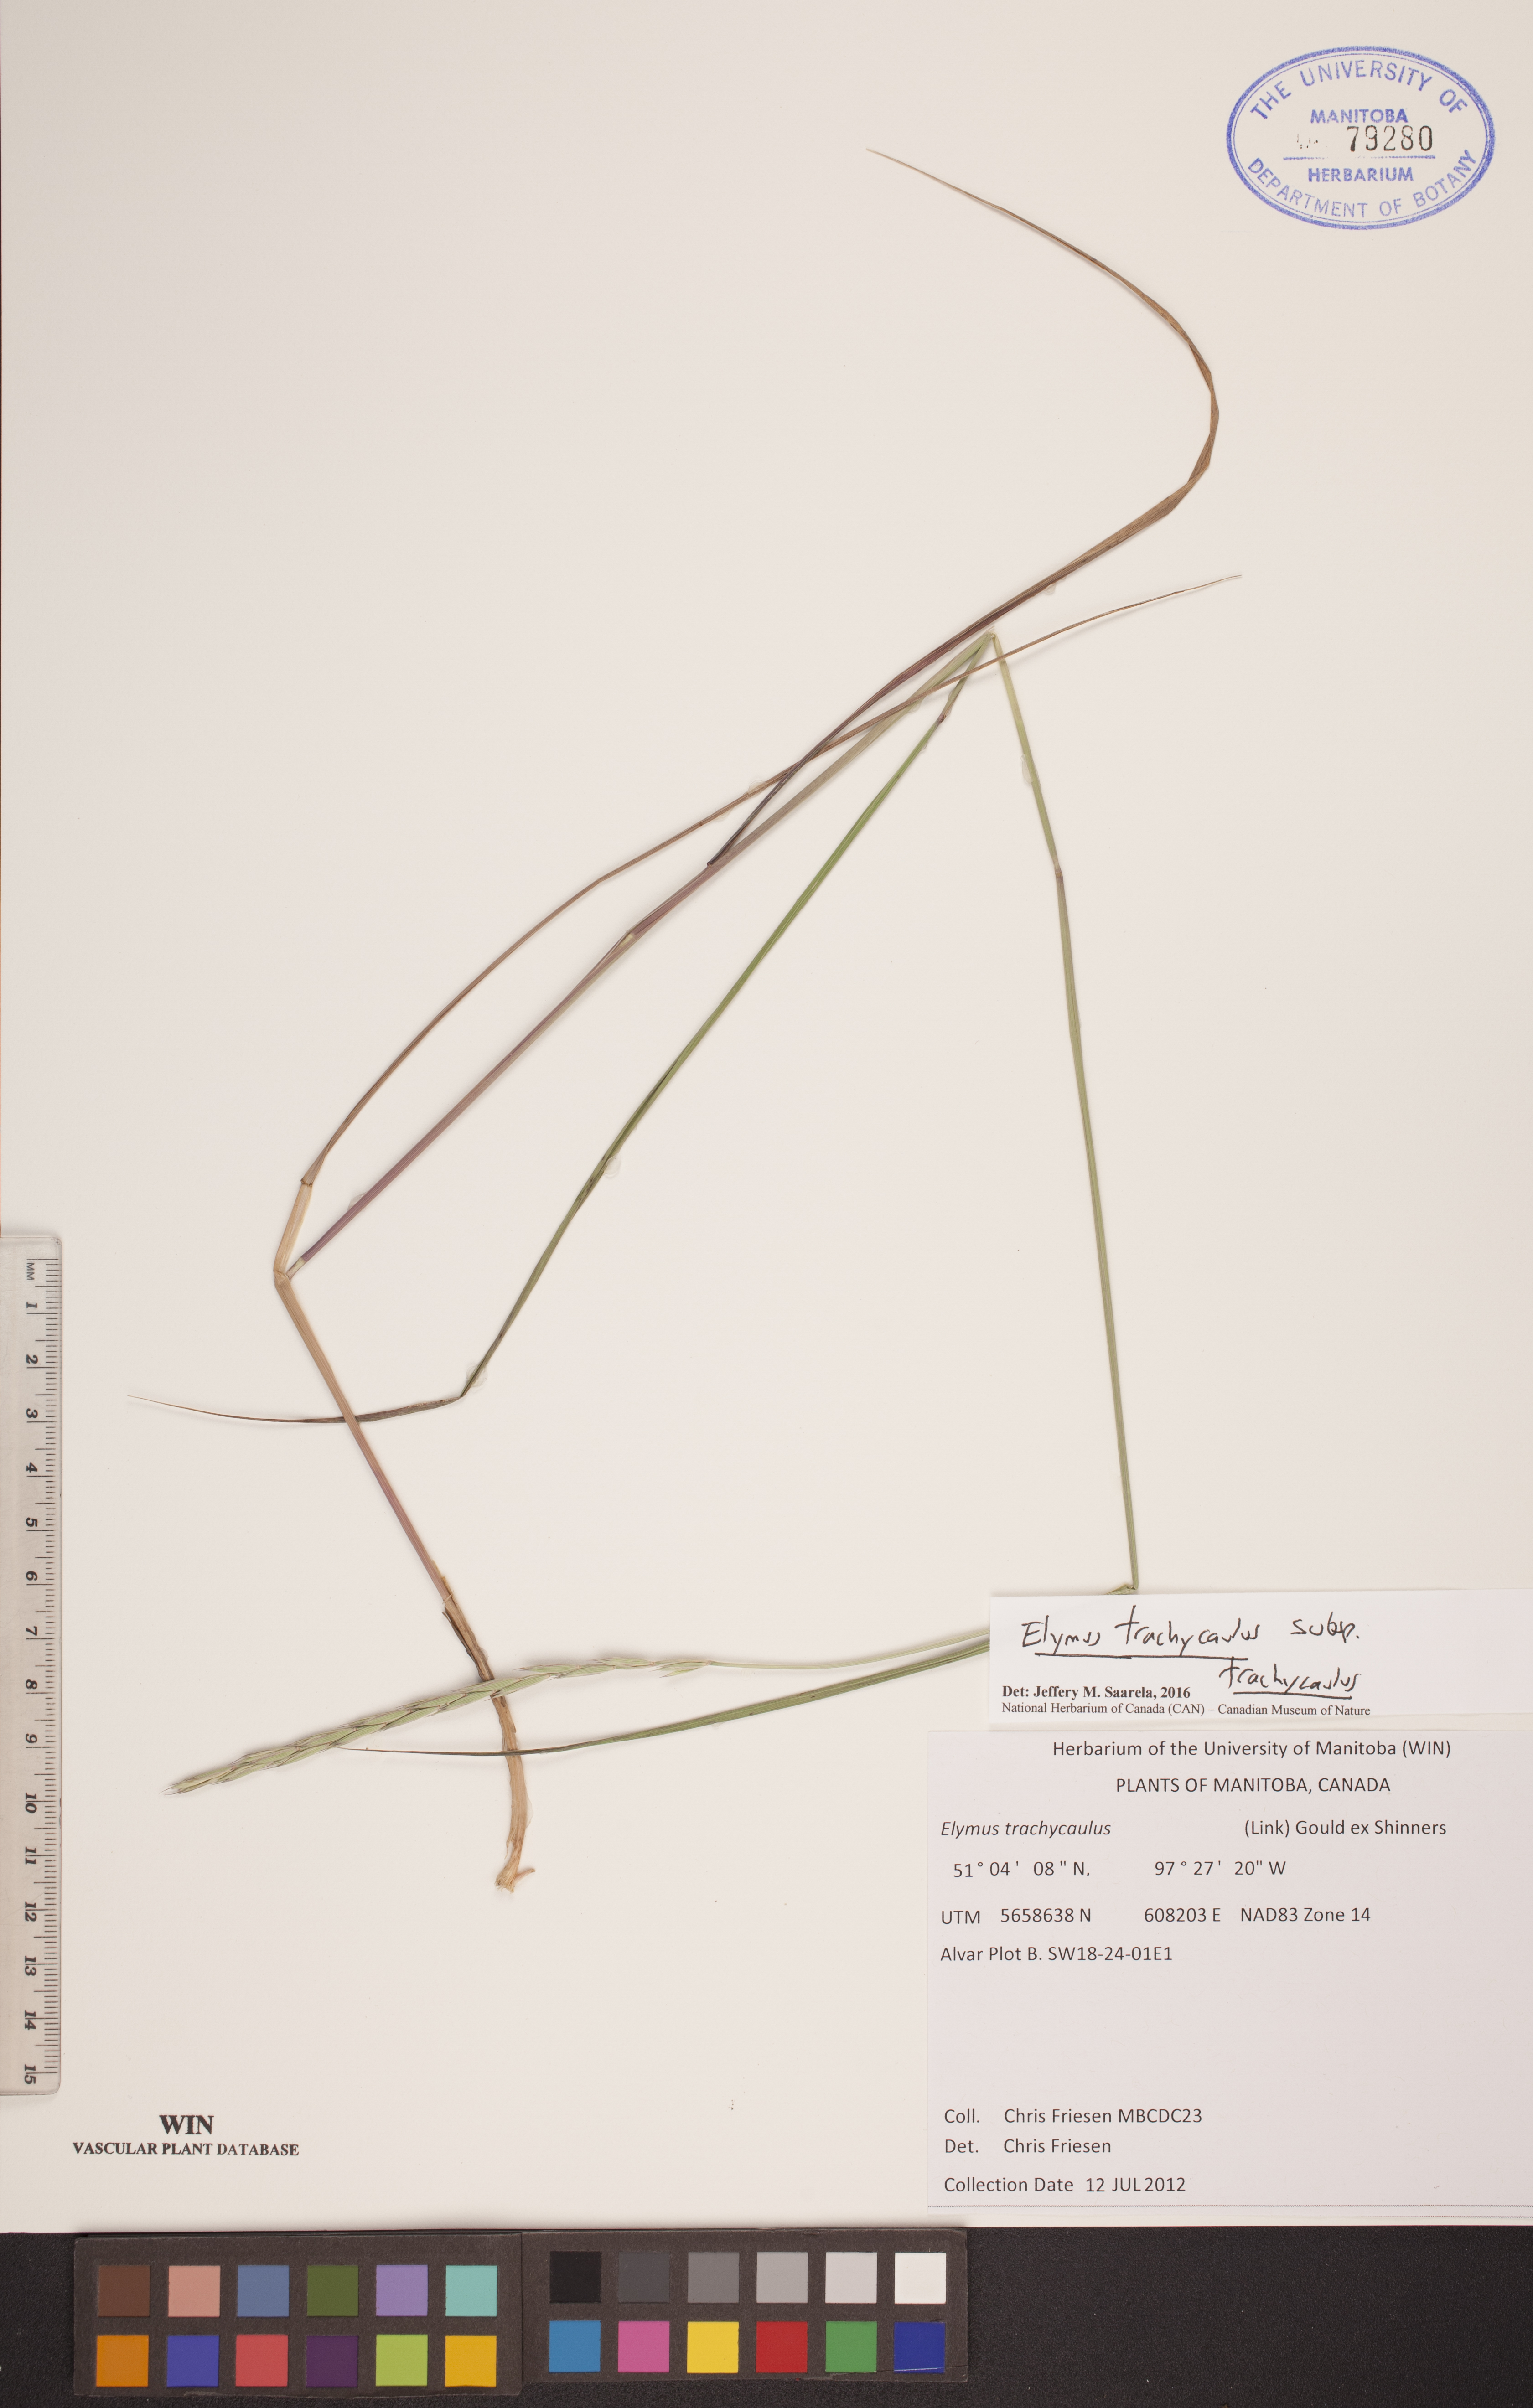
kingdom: Plantae
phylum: Tracheophyta
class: Liliopsida
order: Poales
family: Poaceae
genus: Elymus
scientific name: Elymus violaceus
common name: Arctic wheatgrass
